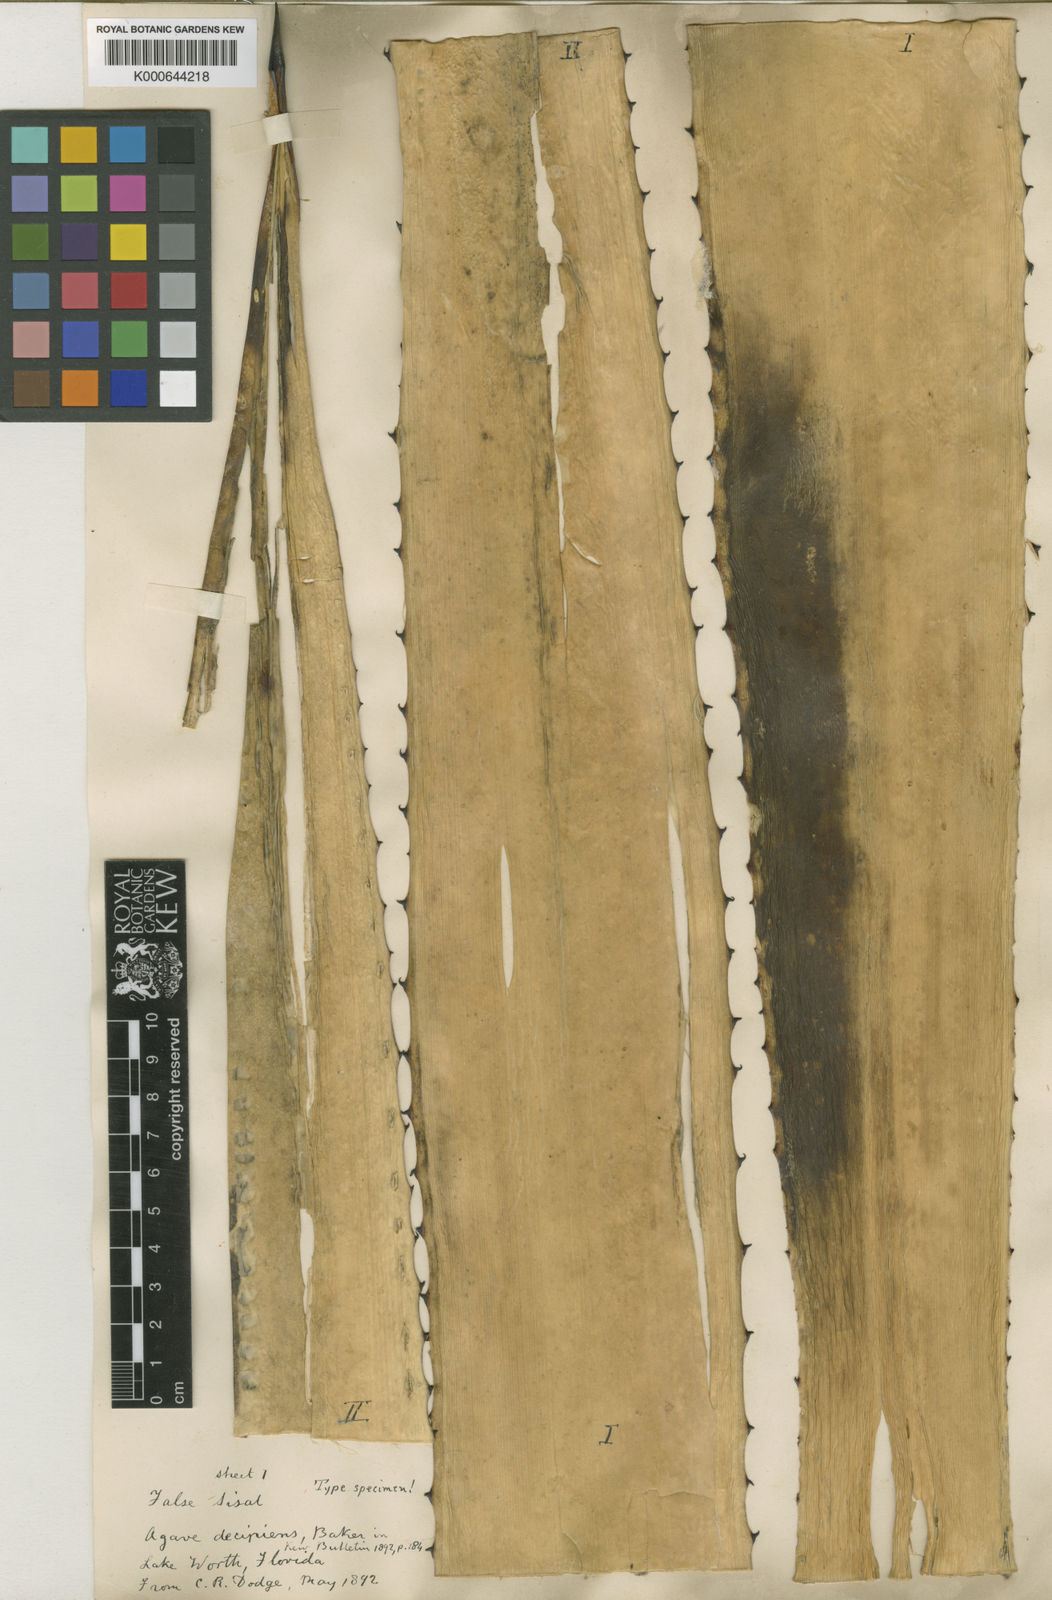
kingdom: Plantae
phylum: Tracheophyta
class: Liliopsida
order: Asparagales
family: Asparagaceae
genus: Agave
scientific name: Agave decipiens
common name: False sisal
